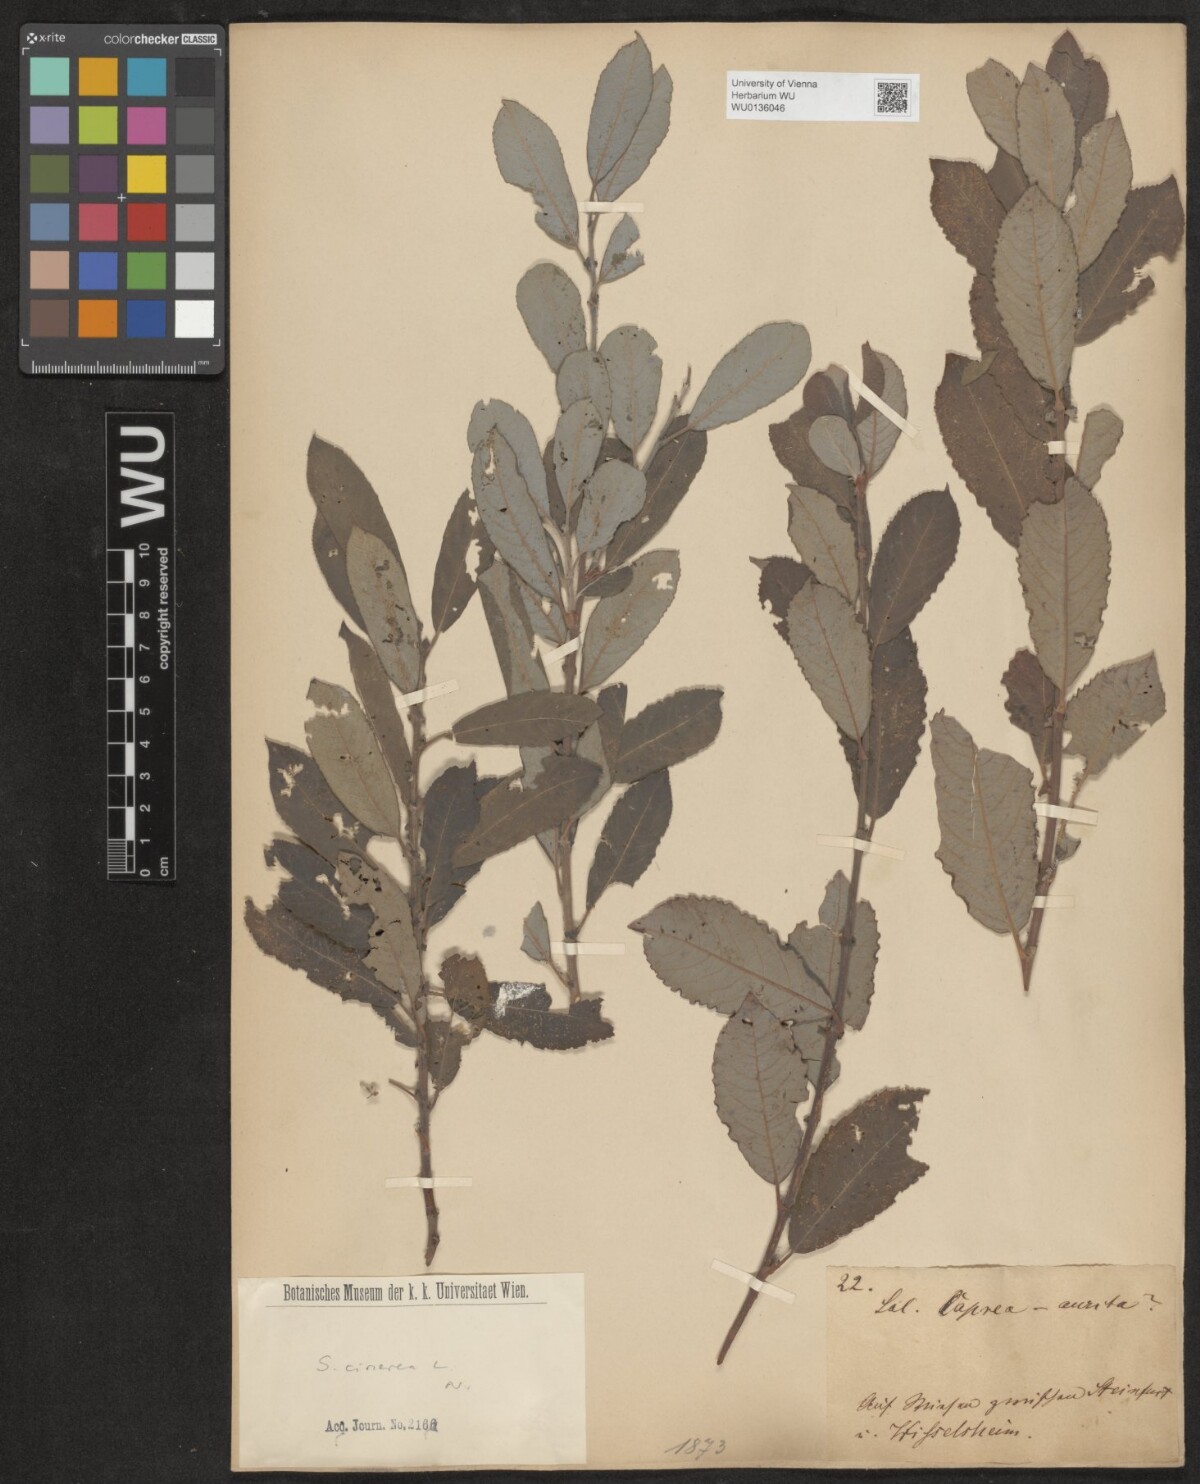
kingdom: Plantae
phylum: Tracheophyta
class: Magnoliopsida
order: Malpighiales
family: Salicaceae
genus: Salix
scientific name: Salix cinerea
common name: Common sallow
